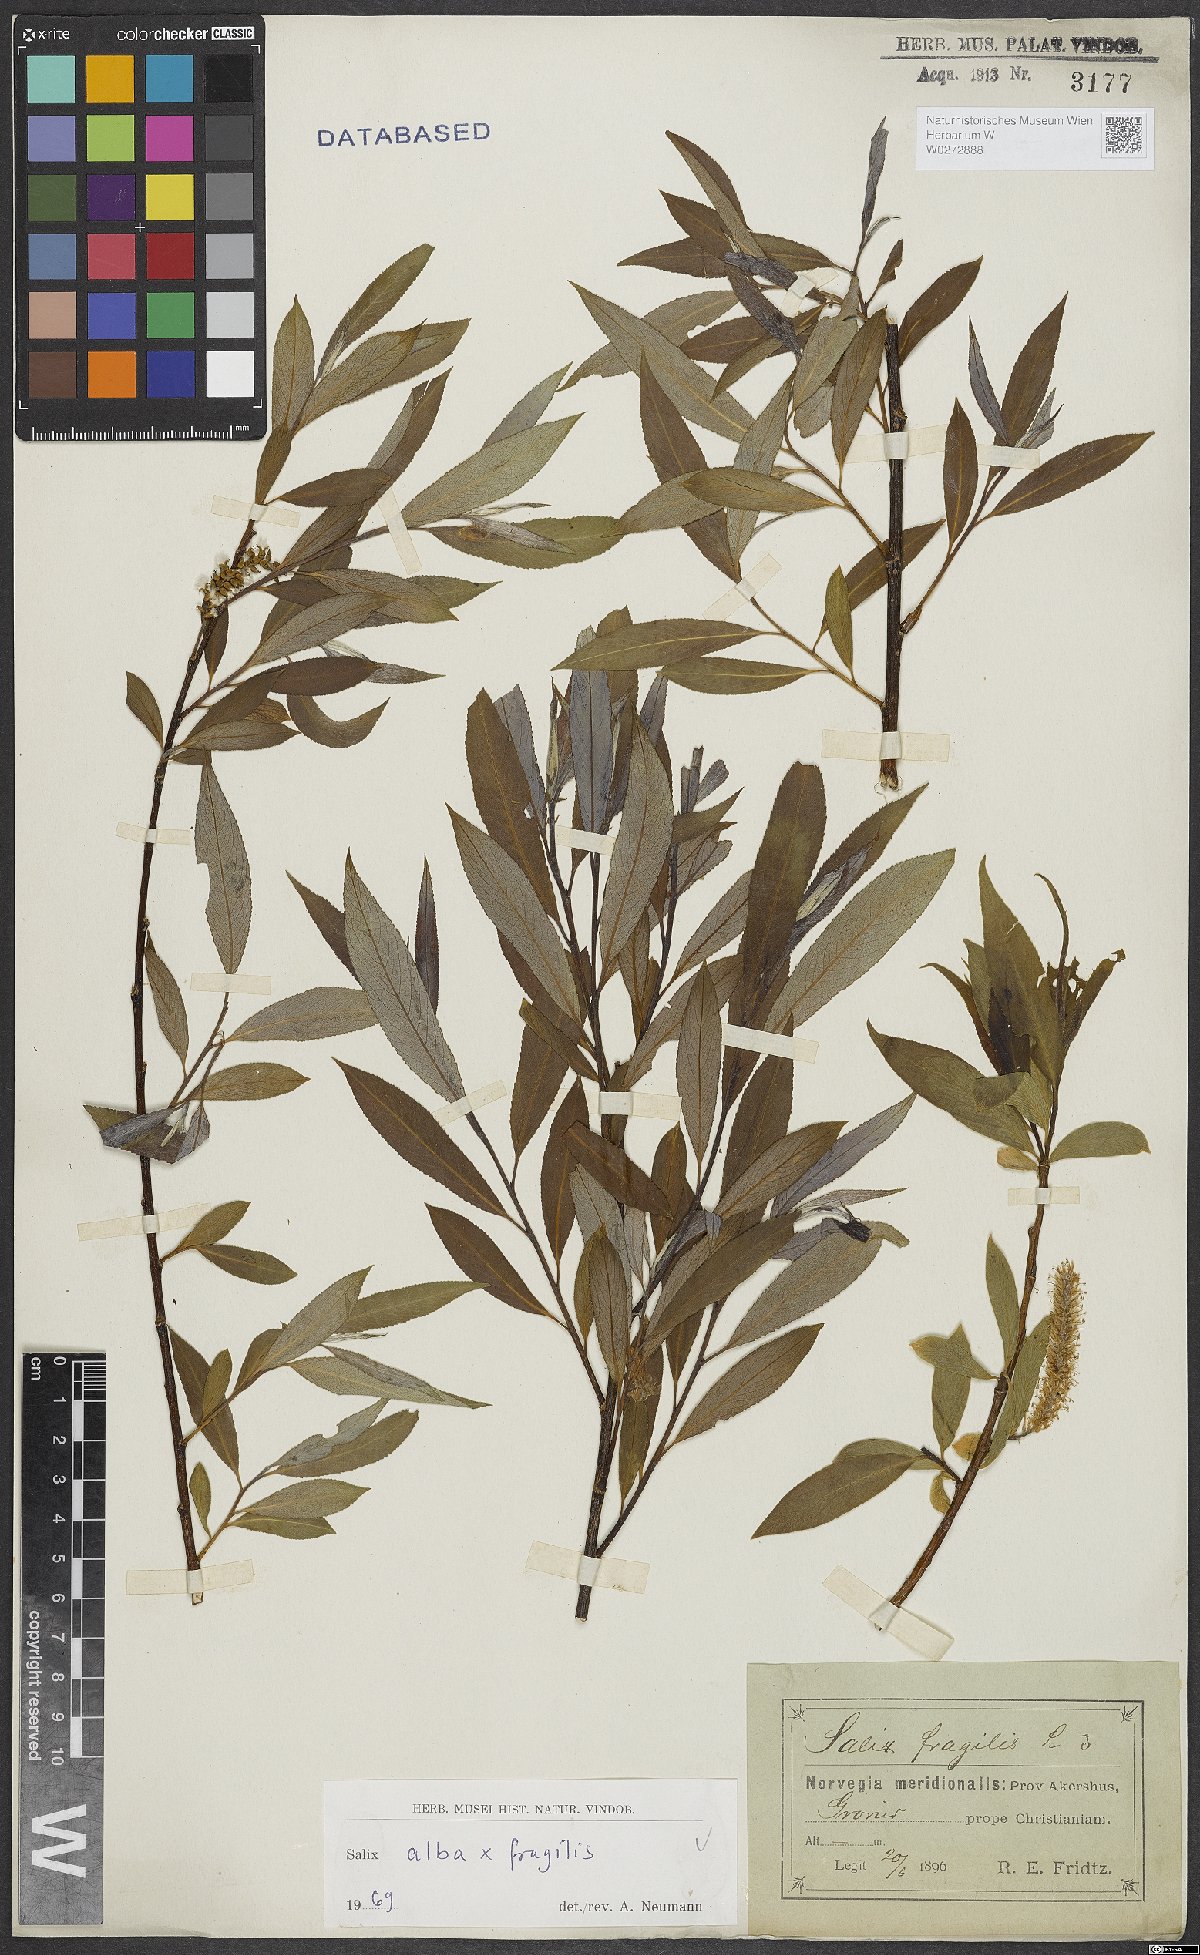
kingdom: Plantae
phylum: Tracheophyta
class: Magnoliopsida
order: Malpighiales
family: Salicaceae
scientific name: Salicaceae
